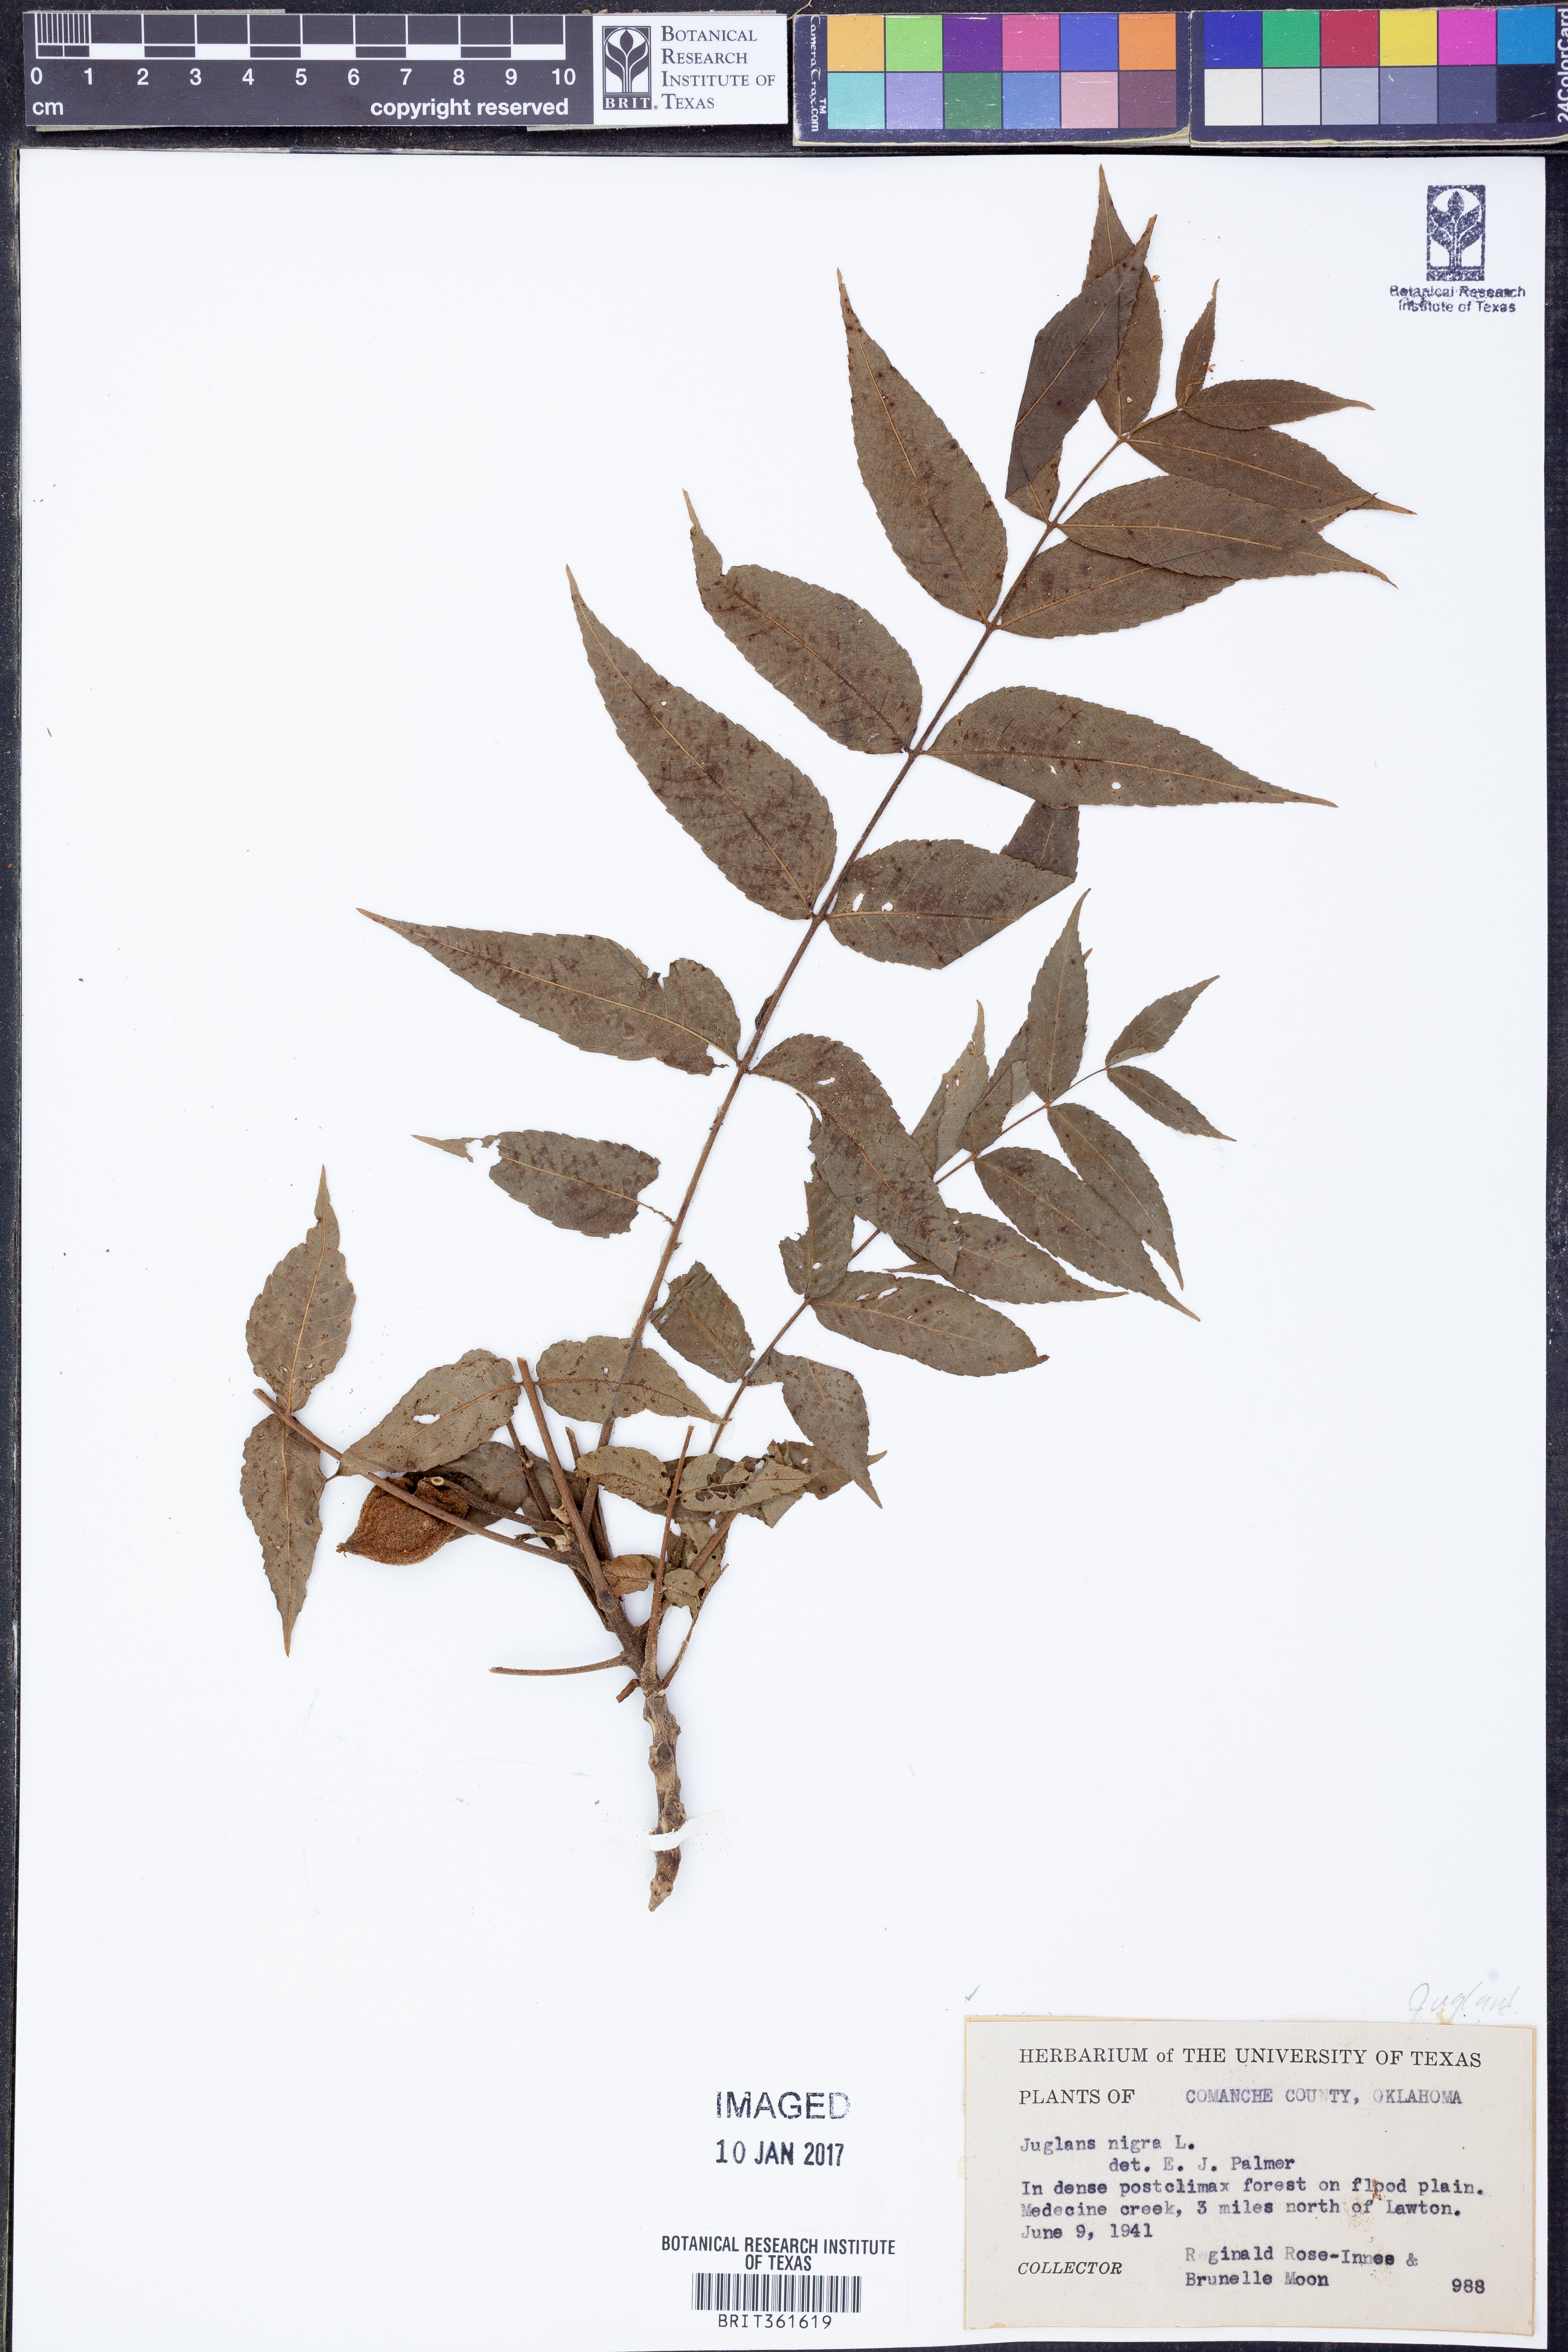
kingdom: Plantae
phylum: Tracheophyta
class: Magnoliopsida
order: Fagales
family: Juglandaceae
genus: Juglans
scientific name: Juglans nigra
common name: Black walnut
